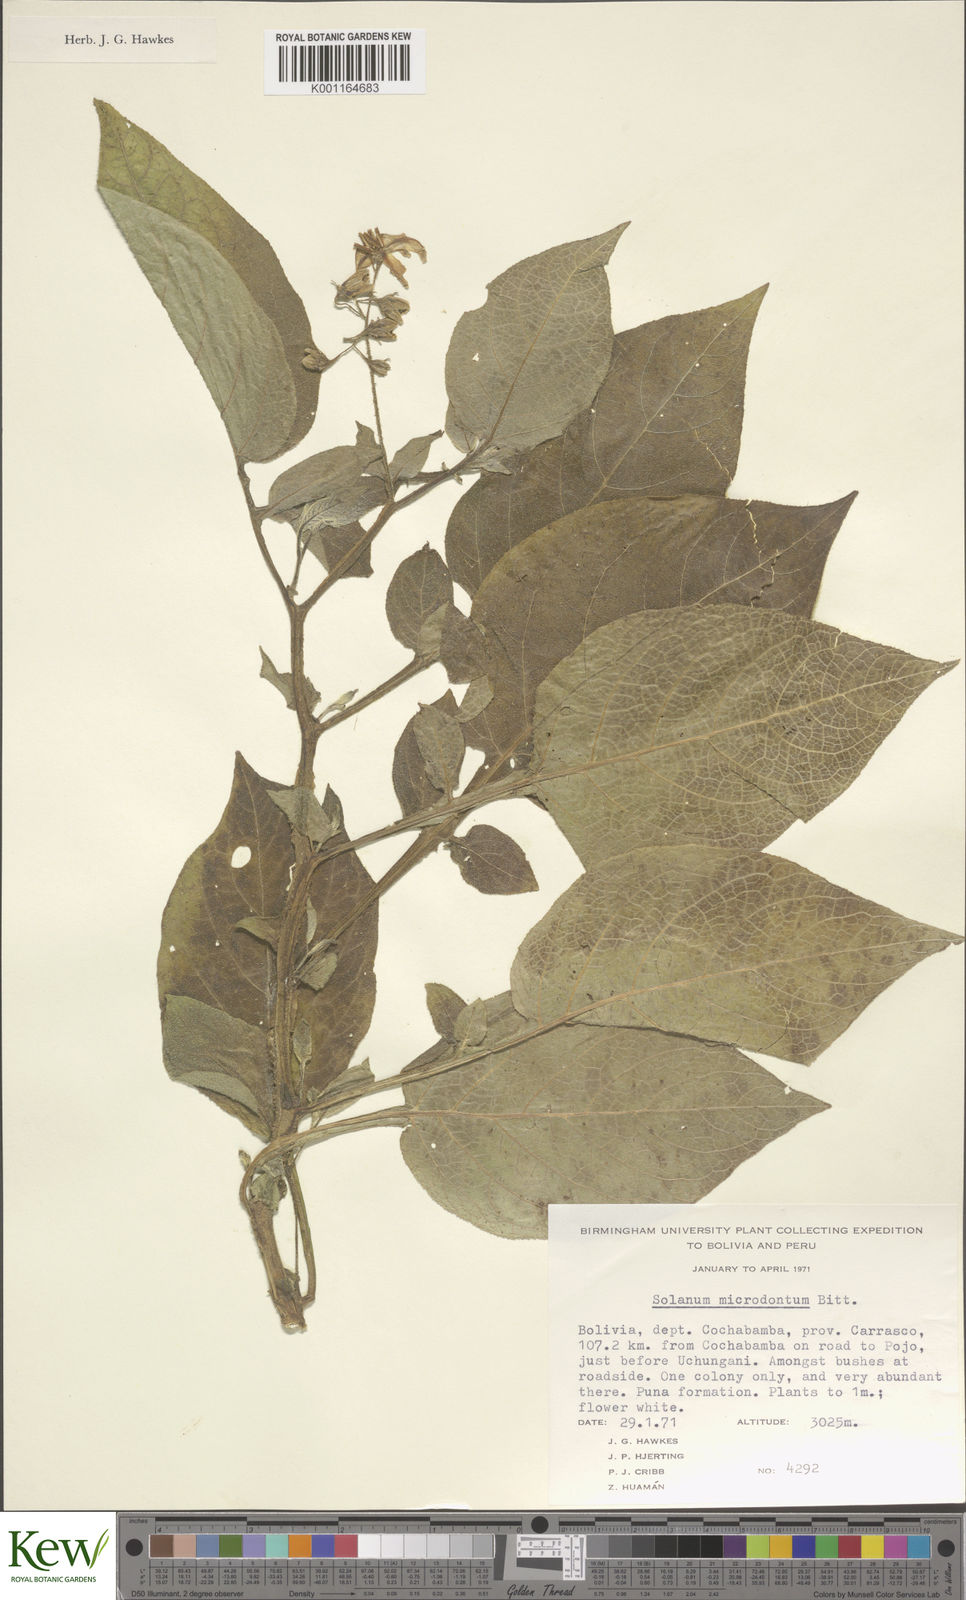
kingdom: Plantae
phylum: Tracheophyta
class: Magnoliopsida
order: Solanales
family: Solanaceae
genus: Solanum
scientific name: Solanum microdontum
